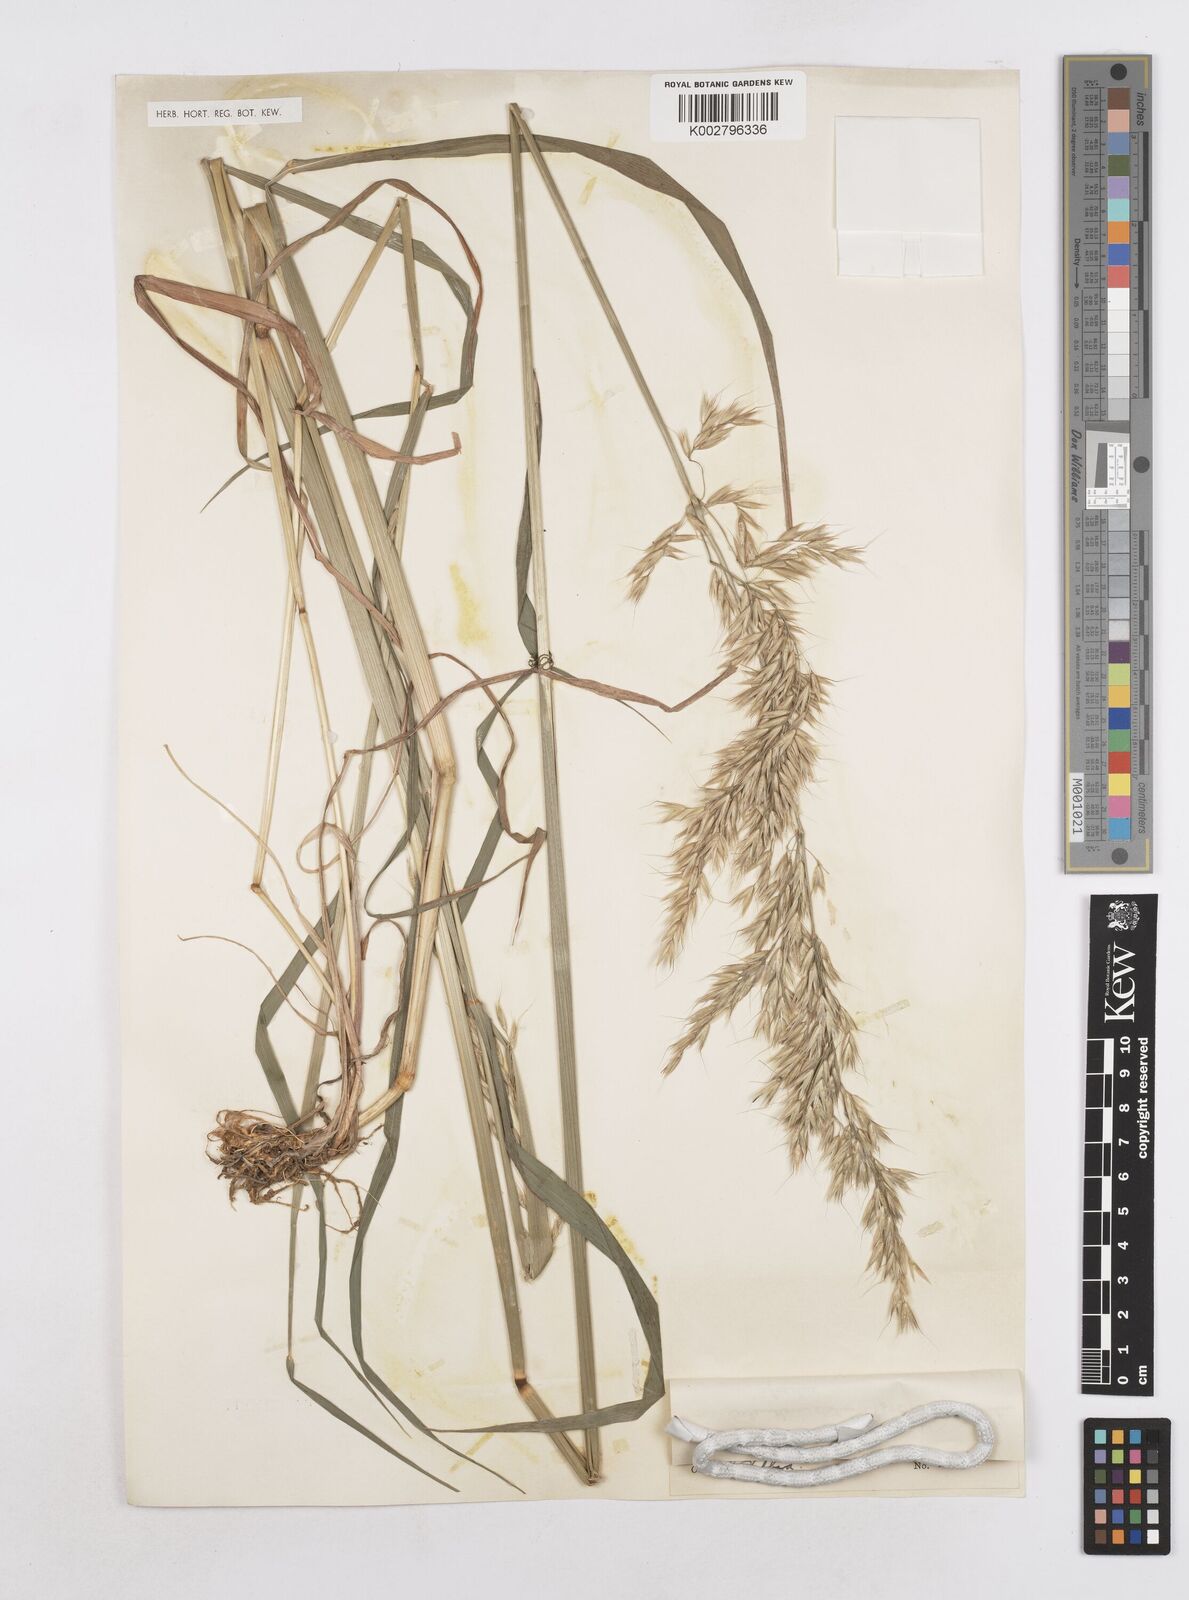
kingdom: Plantae
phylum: Tracheophyta
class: Liliopsida
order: Poales
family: Poaceae
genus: Arrhenatherum
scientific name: Arrhenatherum elatius
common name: Tall oatgrass
